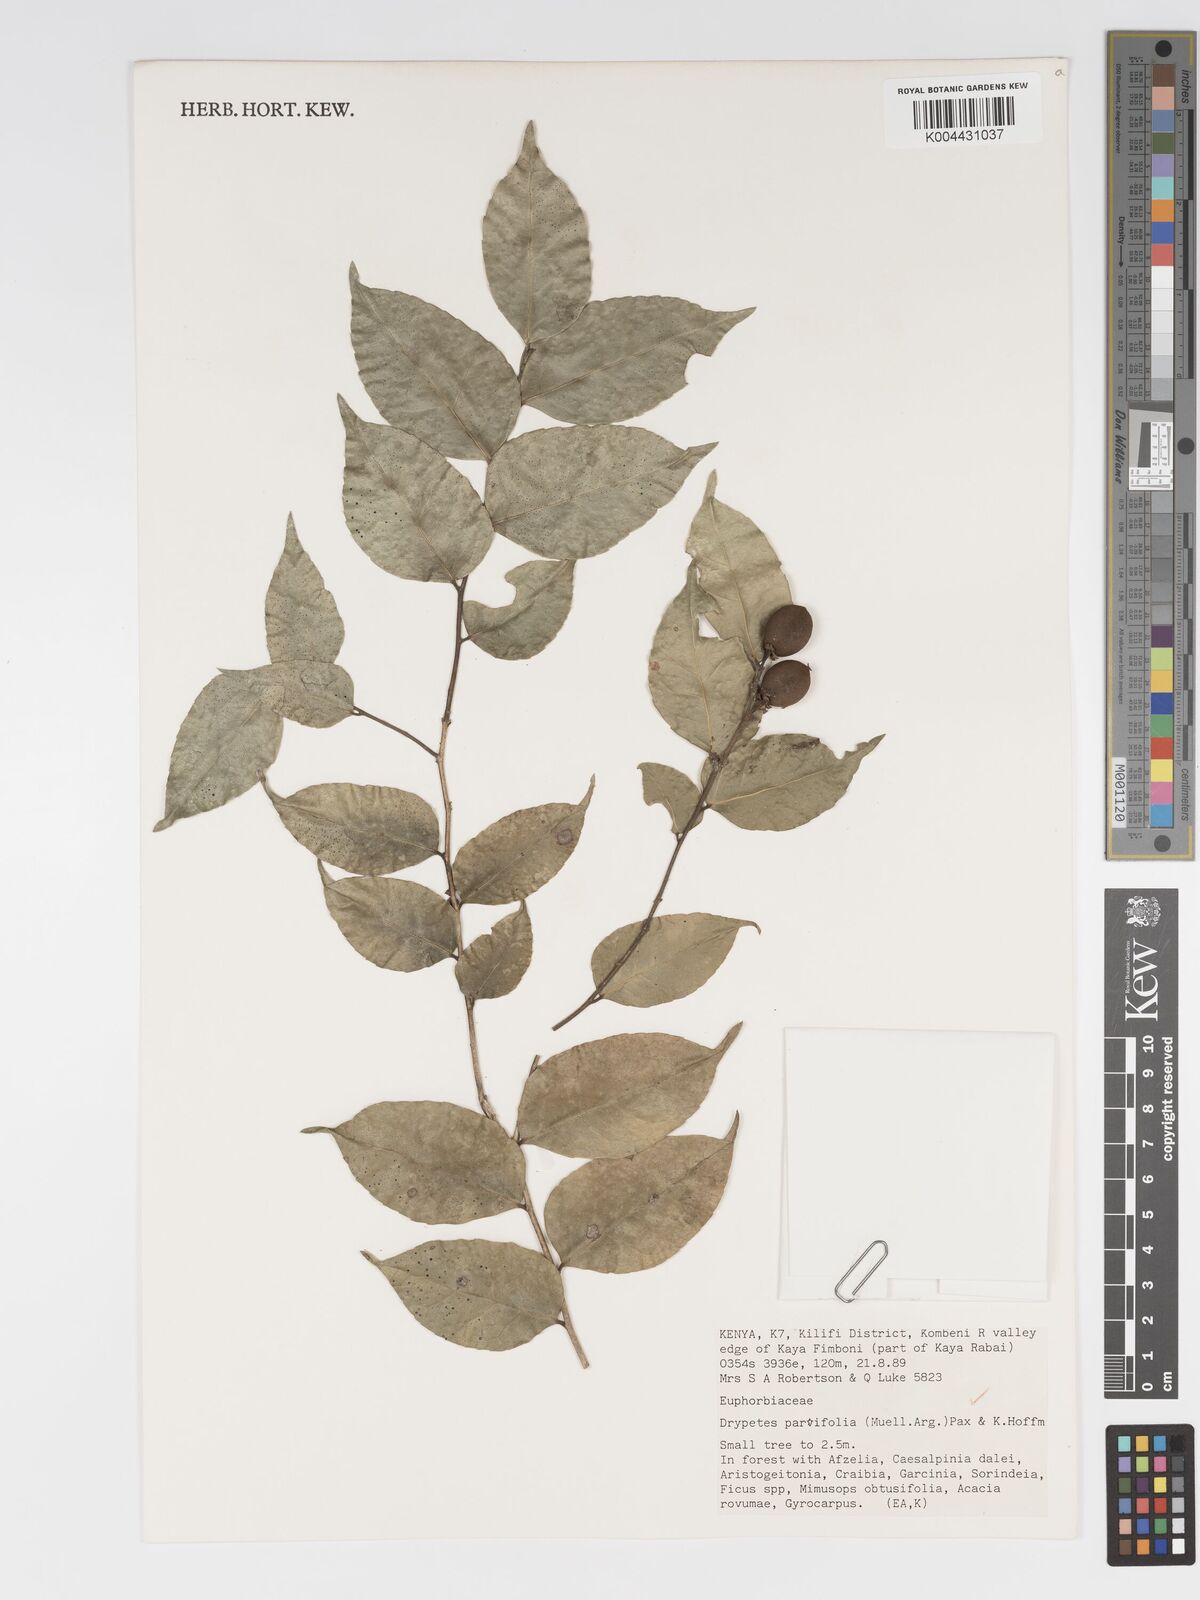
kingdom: Plantae
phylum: Tracheophyta
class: Magnoliopsida
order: Malpighiales
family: Putranjivaceae
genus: Drypetes
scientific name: Drypetes parvifolia
